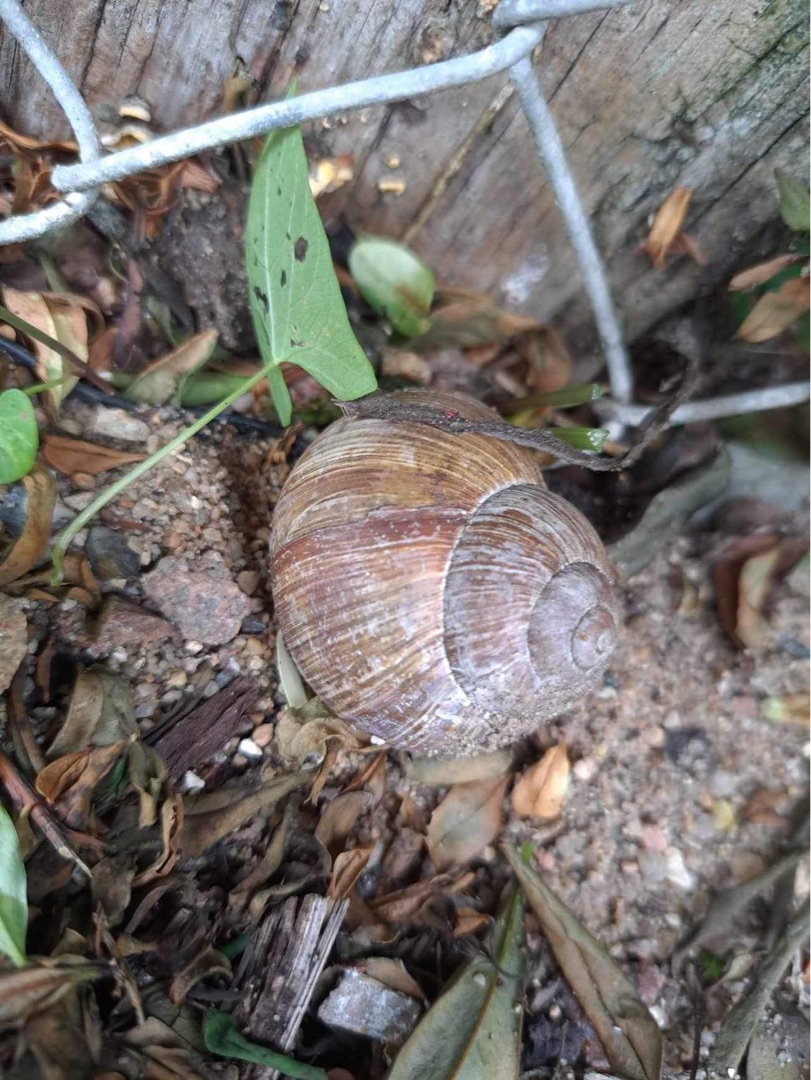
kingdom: Animalia
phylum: Mollusca
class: Gastropoda
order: Stylommatophora
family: Helicidae
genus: Helix
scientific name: Helix pomatia
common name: Vinbjergsnegl
